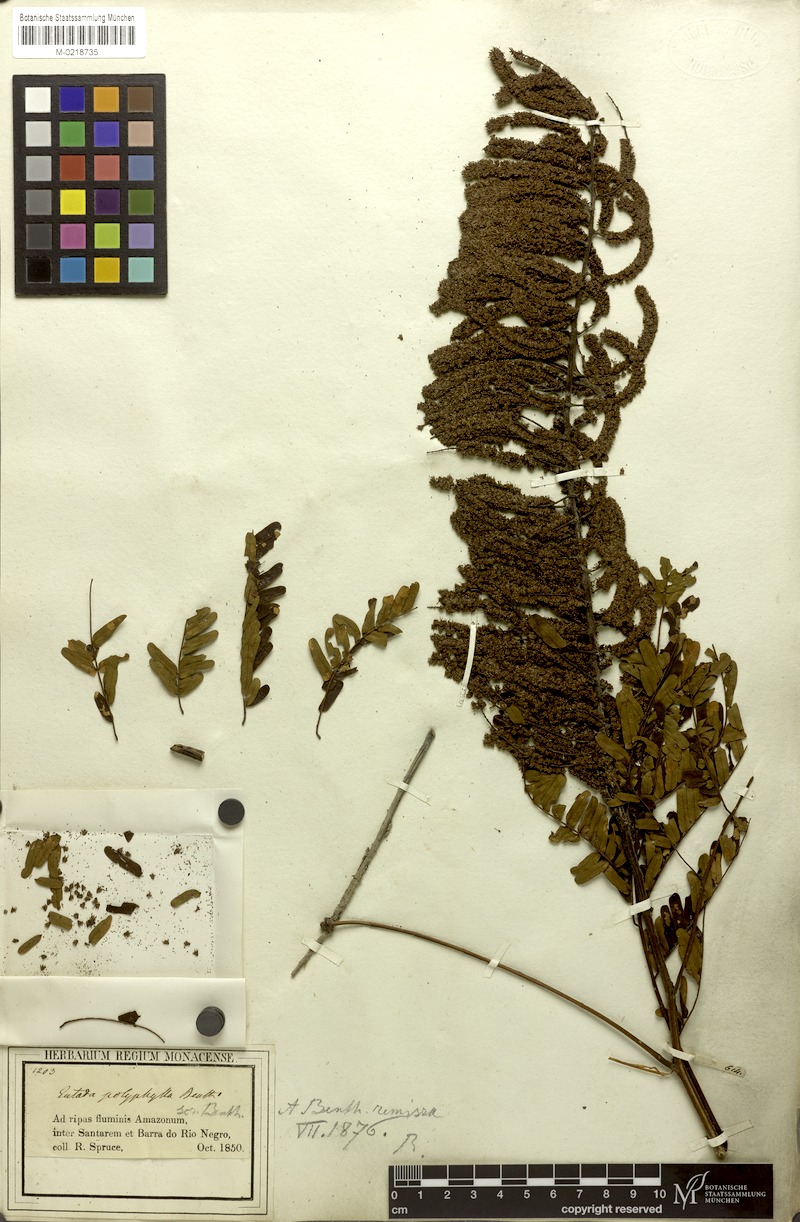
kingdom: Plantae
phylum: Tracheophyta
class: Magnoliopsida
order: Fabales
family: Fabaceae
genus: Entada
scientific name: Entada polyphylla
